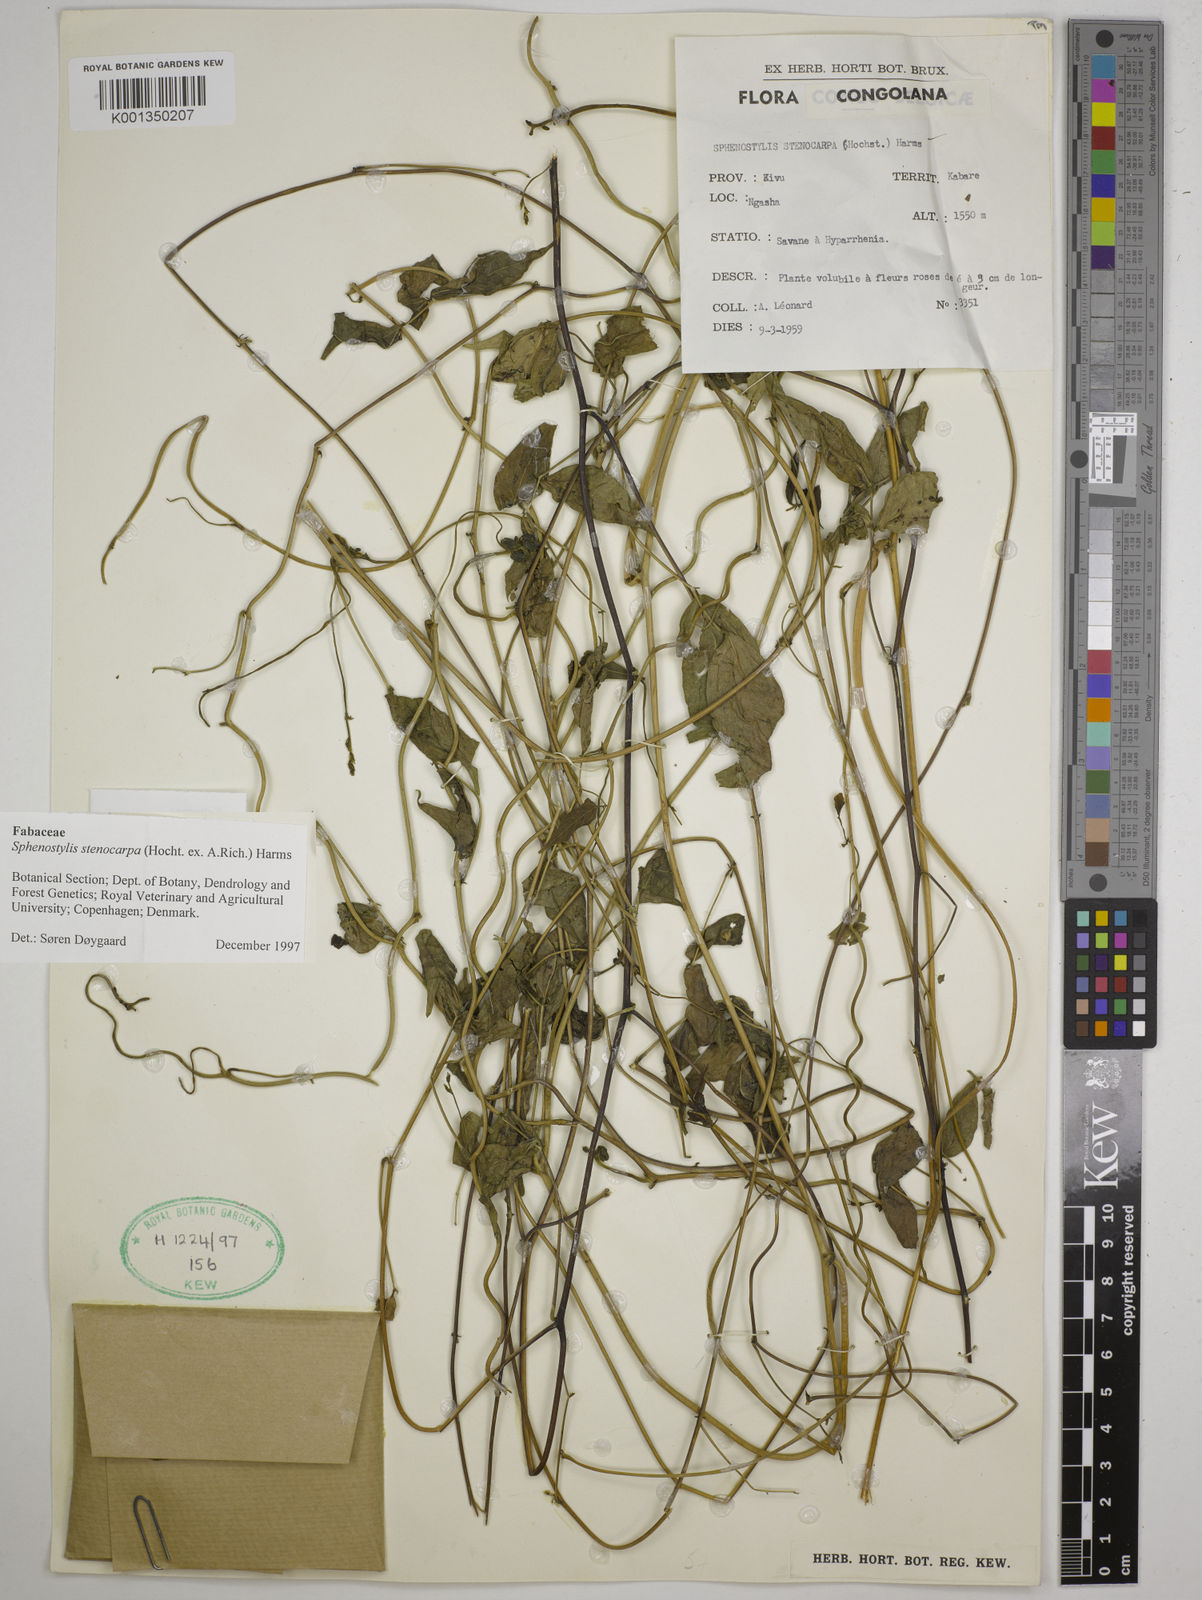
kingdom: Plantae
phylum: Tracheophyta
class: Magnoliopsida
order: Fabales
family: Fabaceae
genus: Sphenostylis
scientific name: Sphenostylis stenocarpa
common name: Yam-pea
